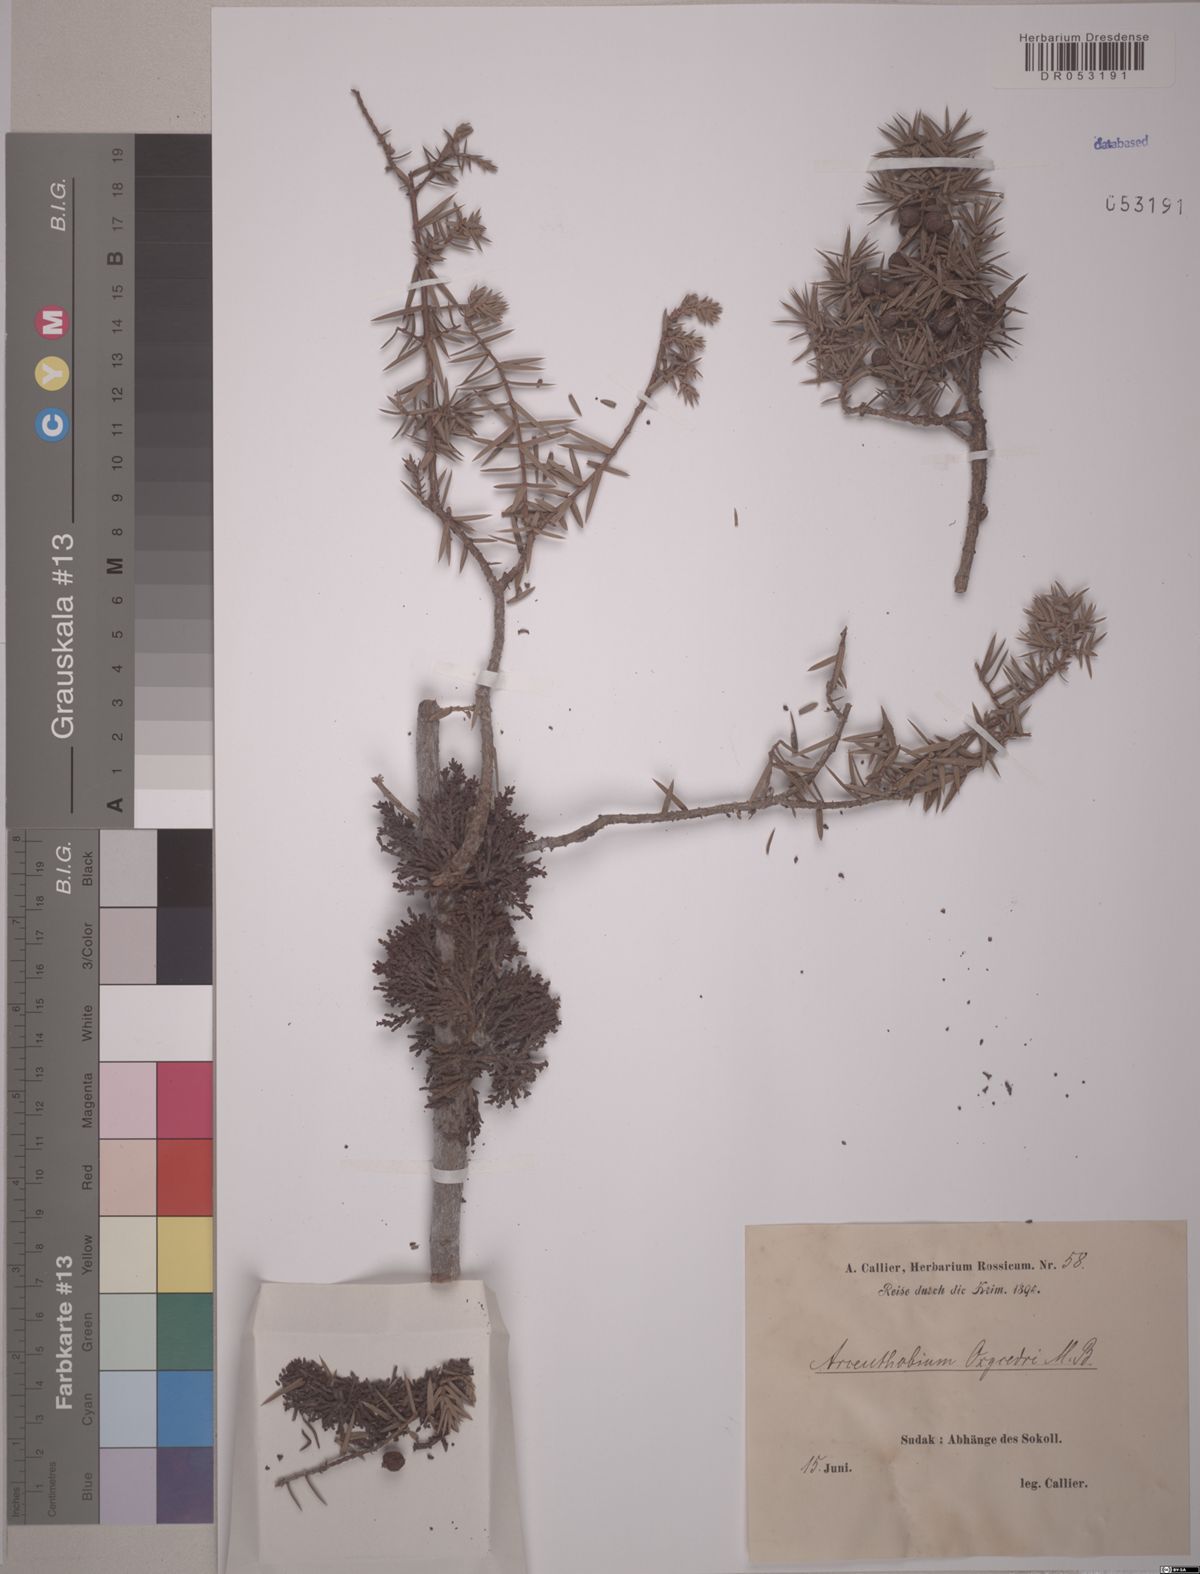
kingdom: Plantae
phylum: Tracheophyta
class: Magnoliopsida
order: Santalales
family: Viscaceae
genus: Arceuthobium
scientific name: Arceuthobium oxycedri
